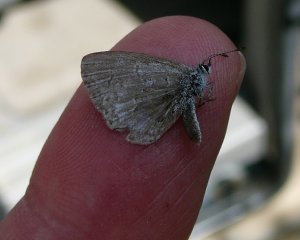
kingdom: Animalia
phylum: Arthropoda
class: Insecta
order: Lepidoptera
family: Lycaenidae
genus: Celastrina
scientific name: Celastrina serotina
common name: Cherry Gall Azure
